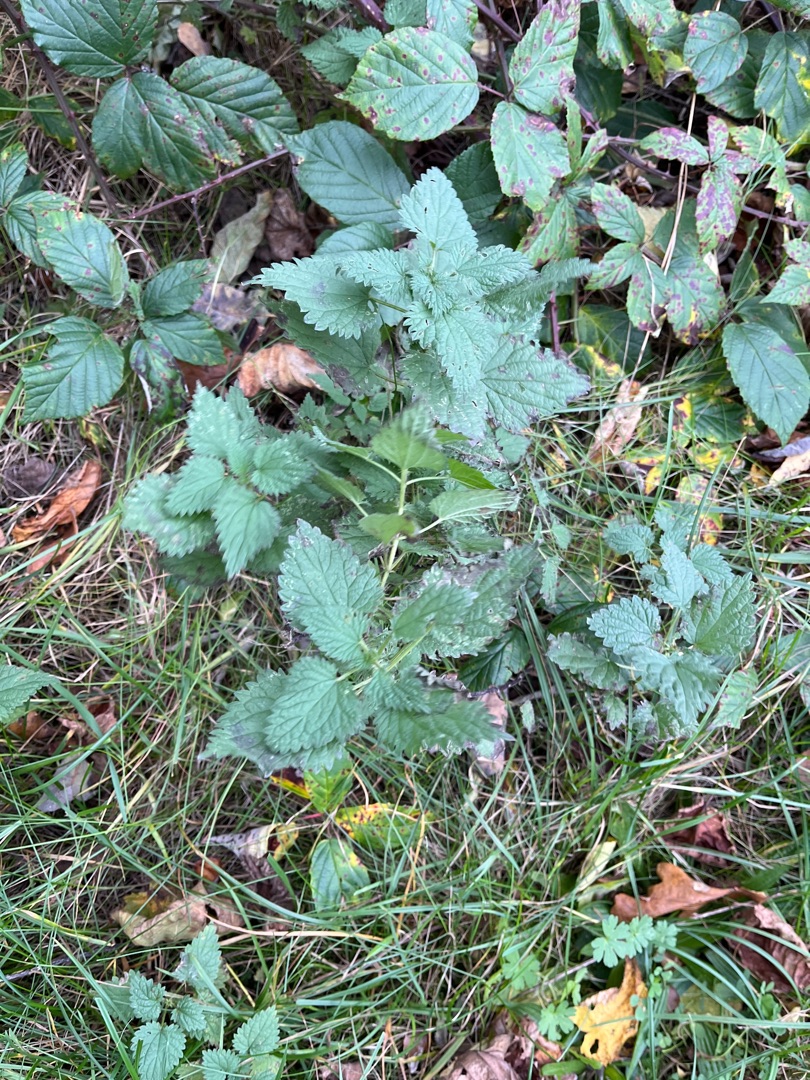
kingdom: Plantae
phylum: Tracheophyta
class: Magnoliopsida
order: Rosales
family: Urticaceae
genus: Urtica
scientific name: Urtica dioica
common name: Stor nælde
